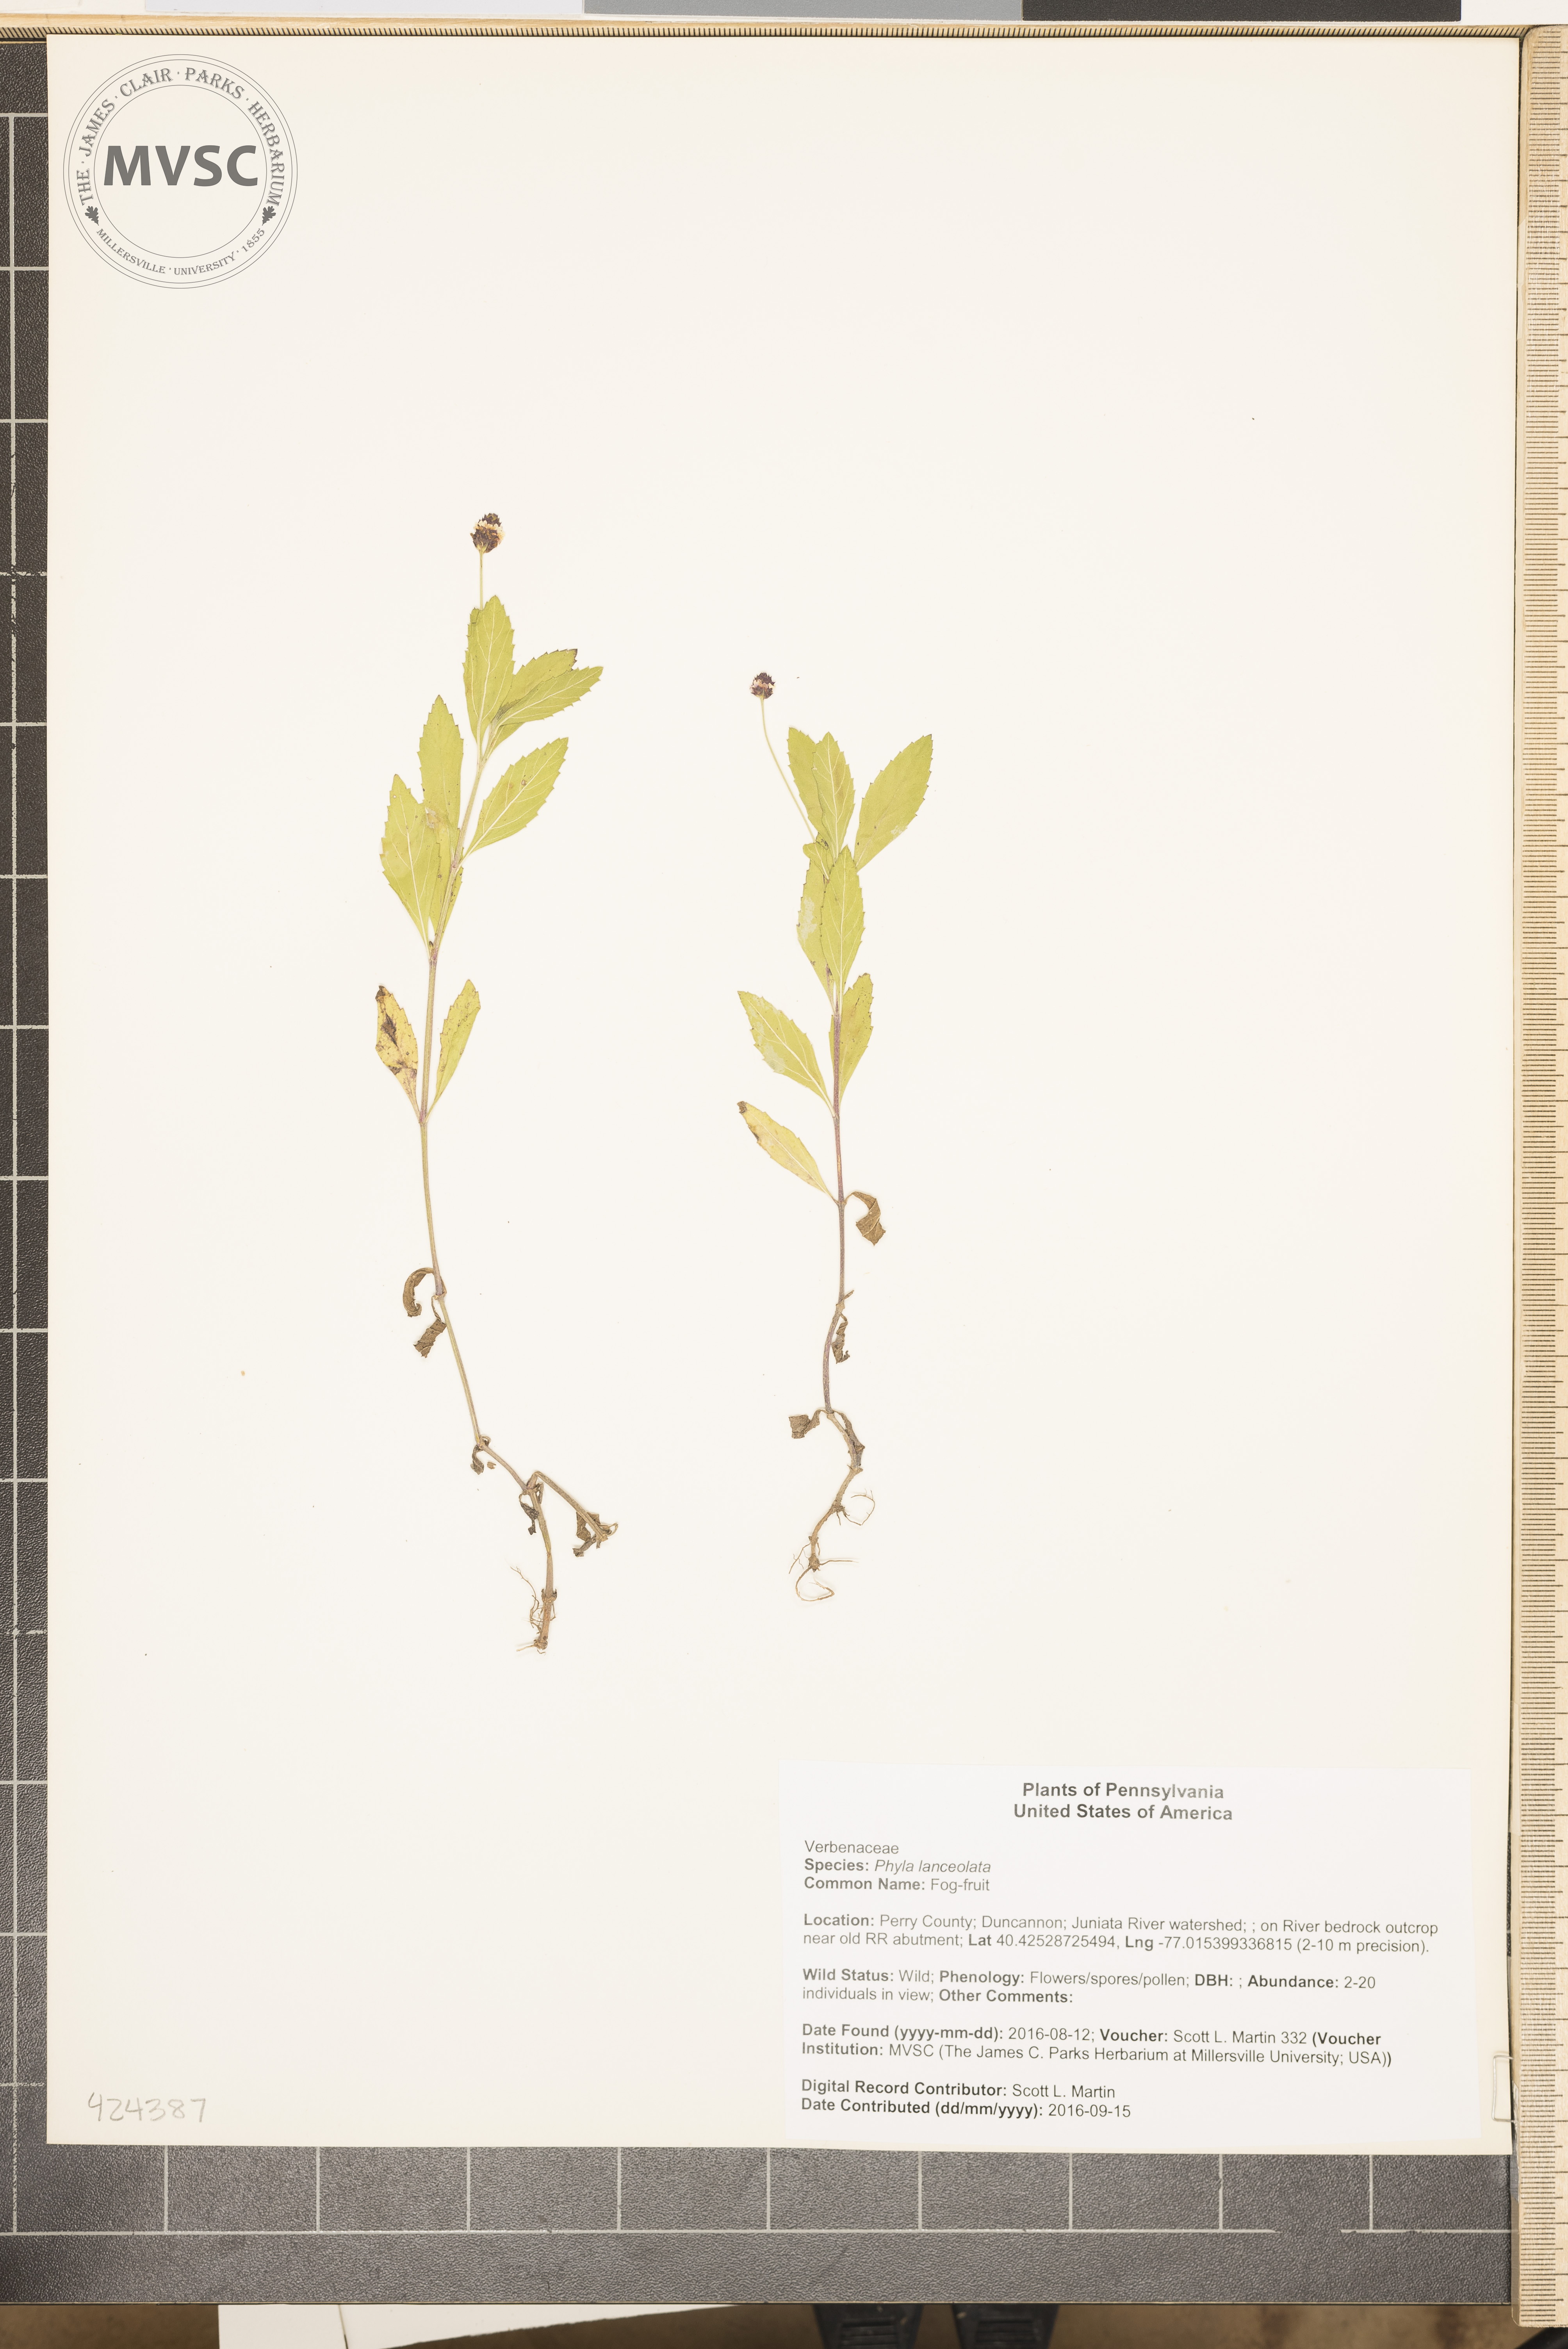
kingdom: Plantae
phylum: Tracheophyta
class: Magnoliopsida
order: Lamiales
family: Verbenaceae
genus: Phyla
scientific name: Phyla lanceolata
